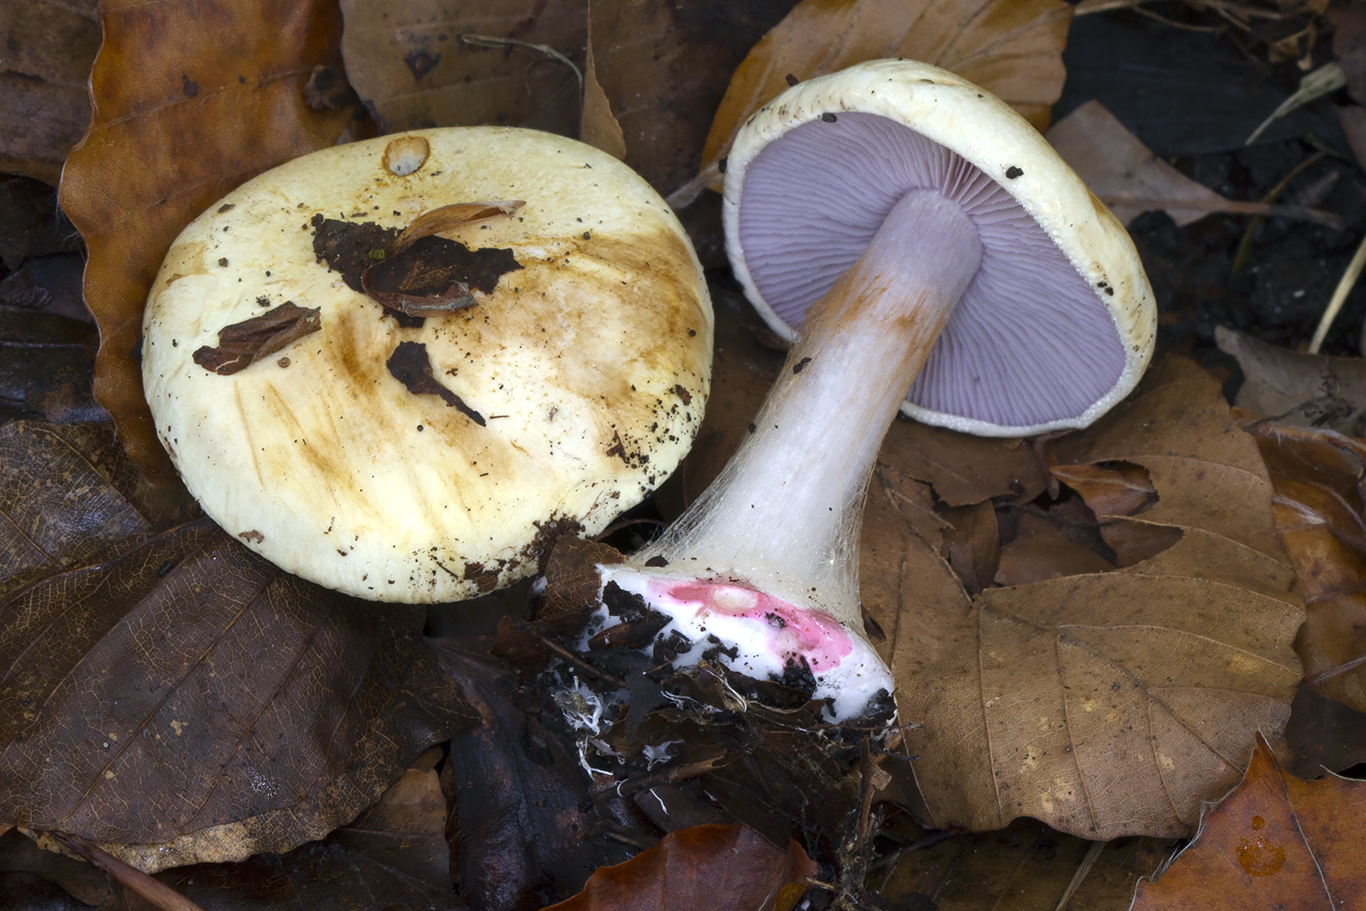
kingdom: Fungi
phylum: Basidiomycota
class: Agaricomycetes
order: Agaricales
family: Cortinariaceae
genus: Calonarius
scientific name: Calonarius catharinae
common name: Katrines slørhat
